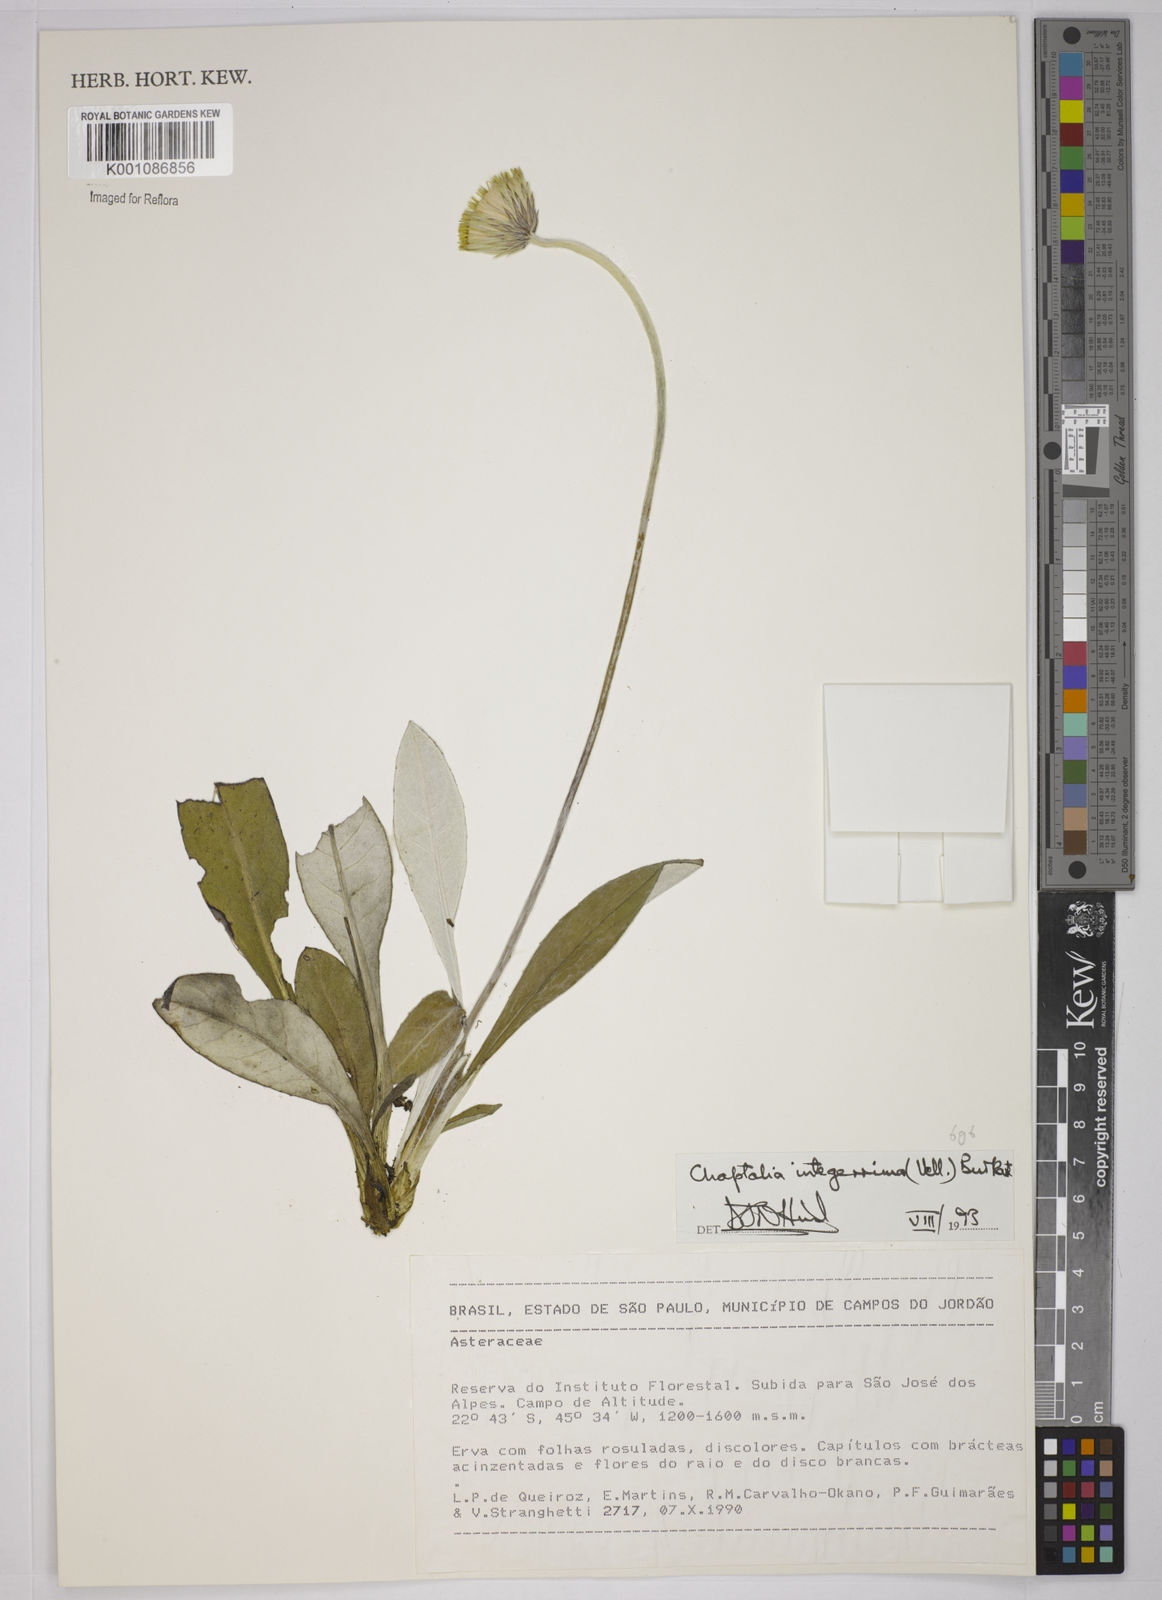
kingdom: Plantae
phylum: Tracheophyta
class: Magnoliopsida
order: Asterales
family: Asteraceae
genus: Chaptalia
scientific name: Chaptalia integerrima
